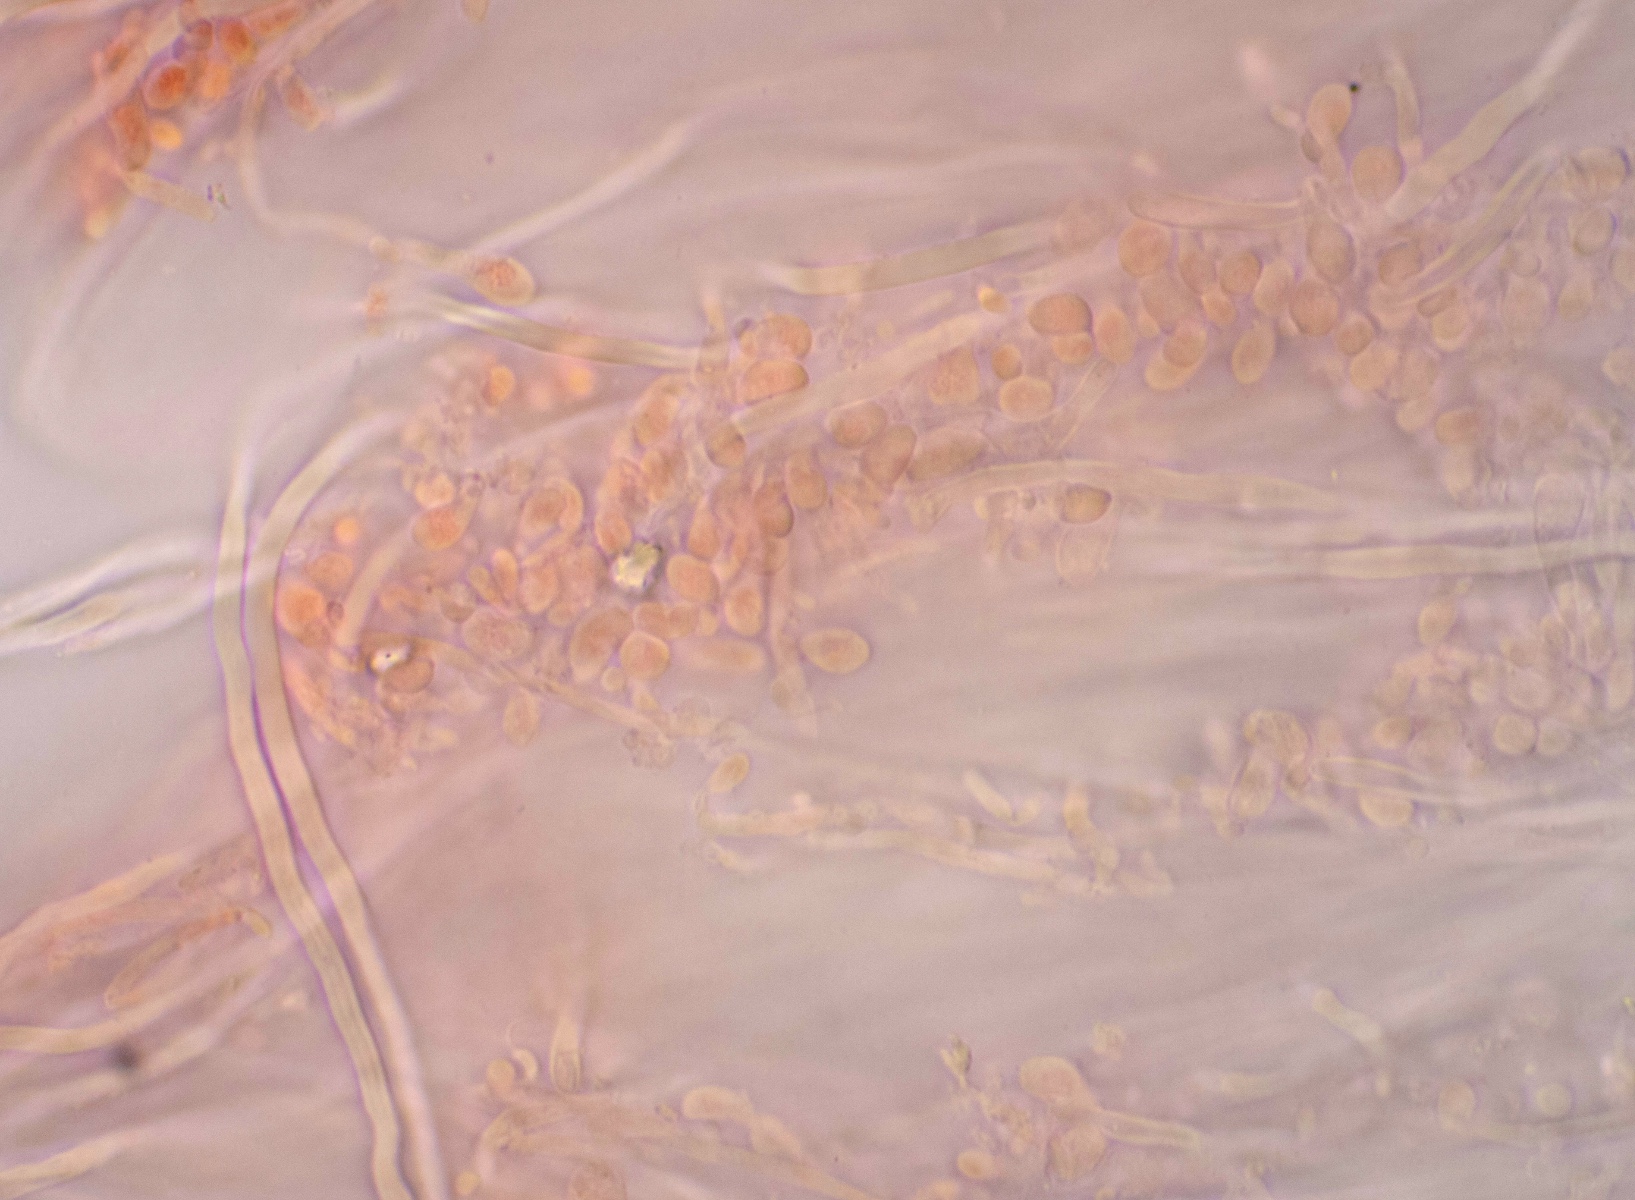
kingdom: Fungi
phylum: Basidiomycota
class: Agaricomycetes
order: Hymenochaetales
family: Rickenellaceae
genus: Sidera
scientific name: Sidera vulgaris
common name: fin flødeporesvamp
